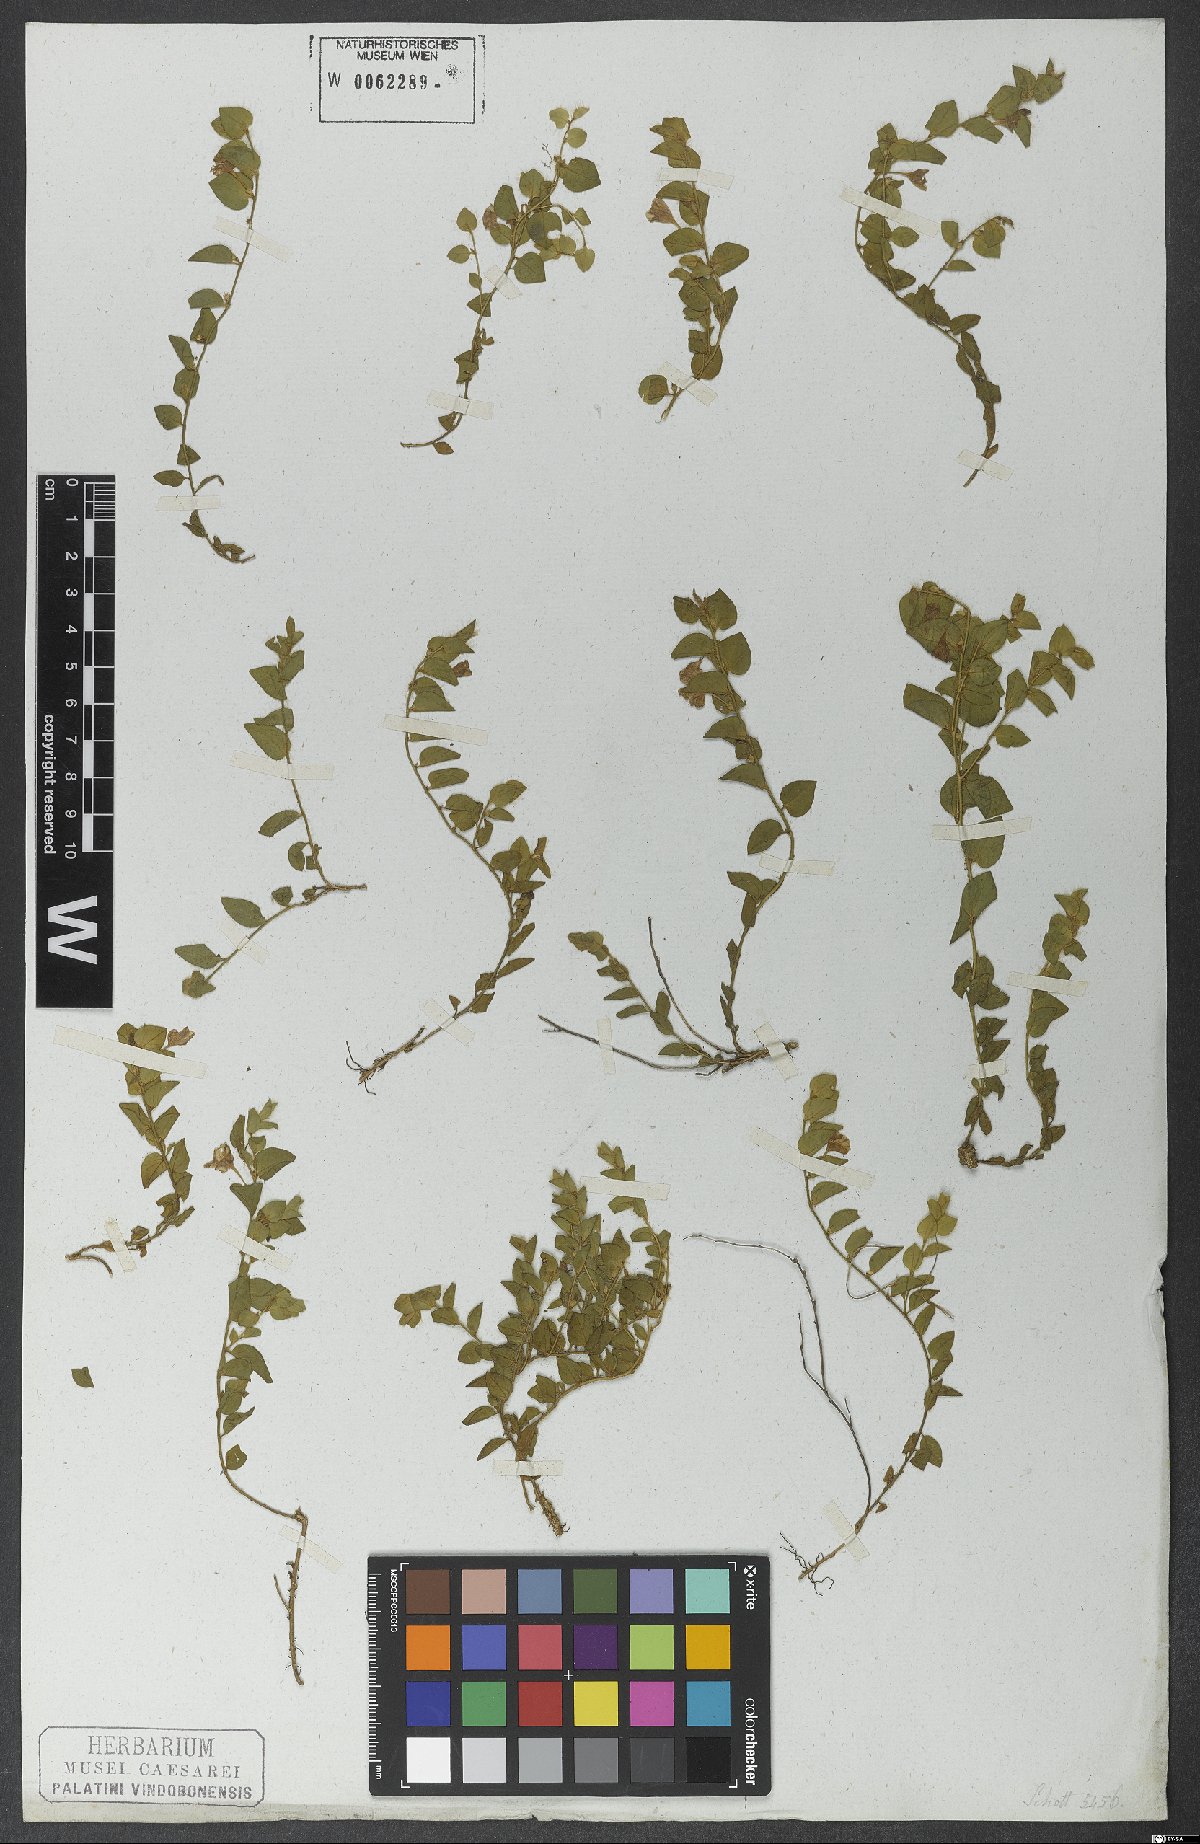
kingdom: Plantae
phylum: Tracheophyta
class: Magnoliopsida
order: Solanales
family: Convolvulaceae
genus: Evolvulus
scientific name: Evolvulus macroblepharis
